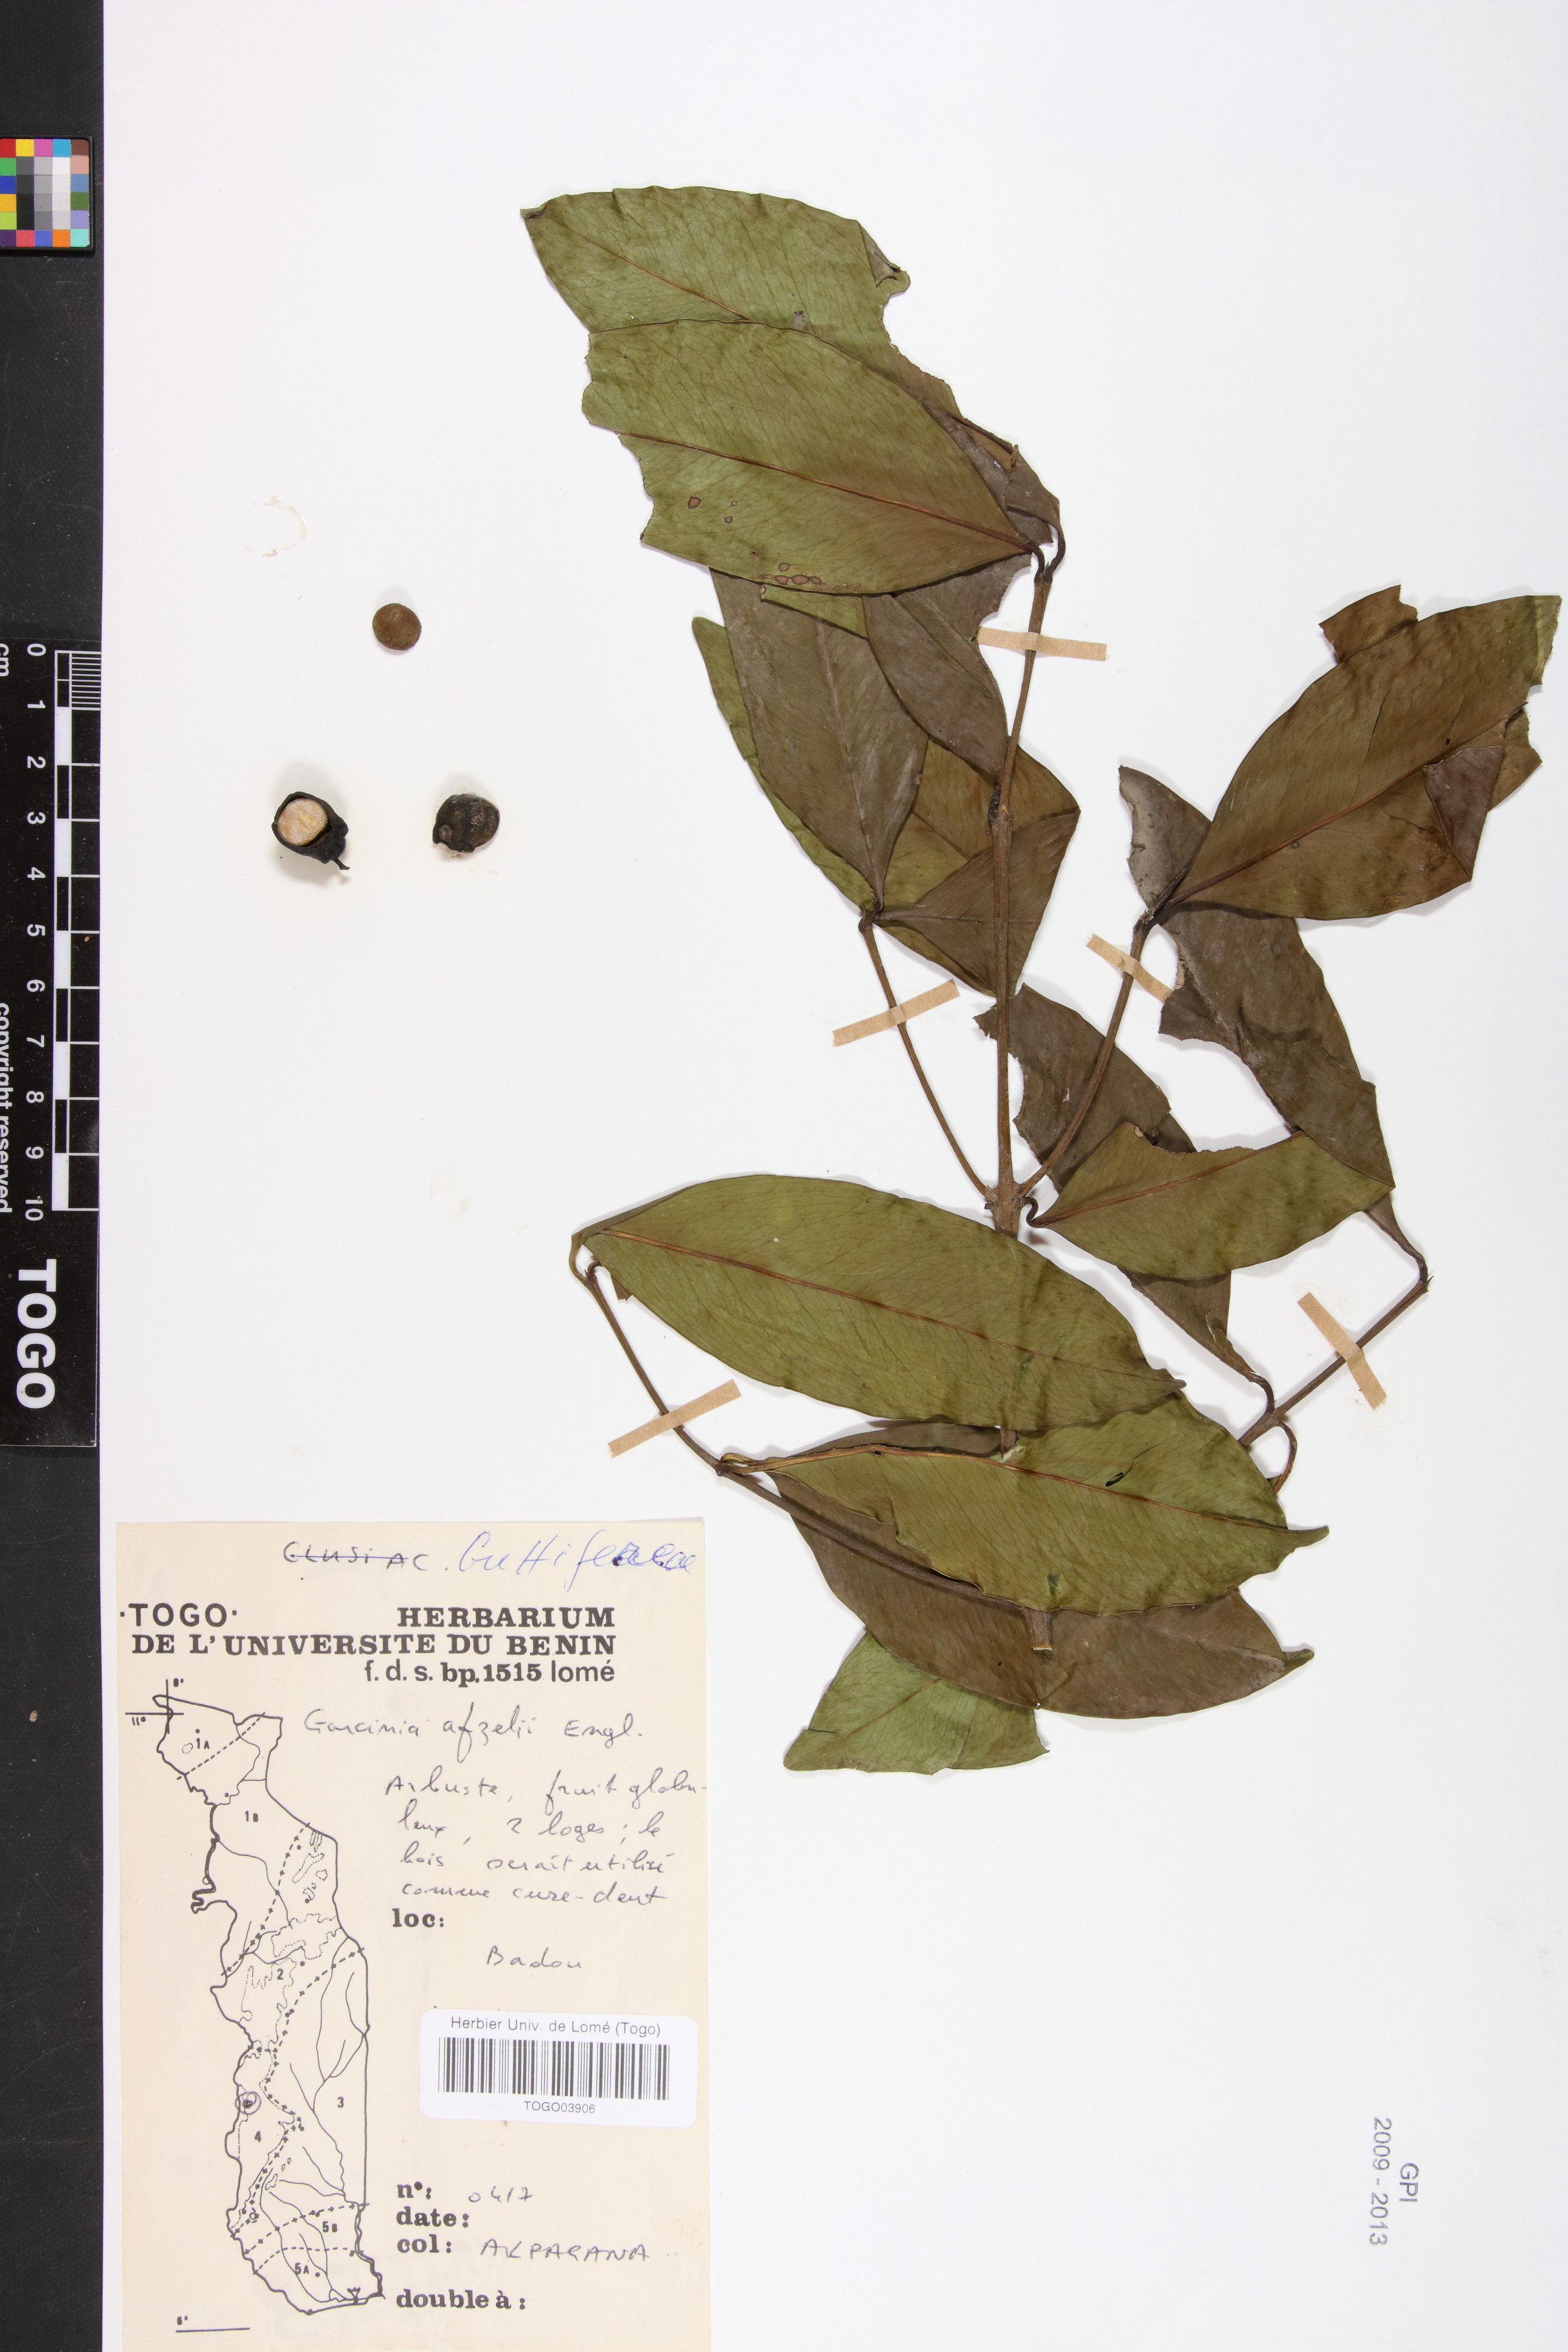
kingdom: Plantae
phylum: Tracheophyta
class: Magnoliopsida
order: Malpighiales
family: Clusiaceae
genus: Garcinia
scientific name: Garcinia ovalifolia
